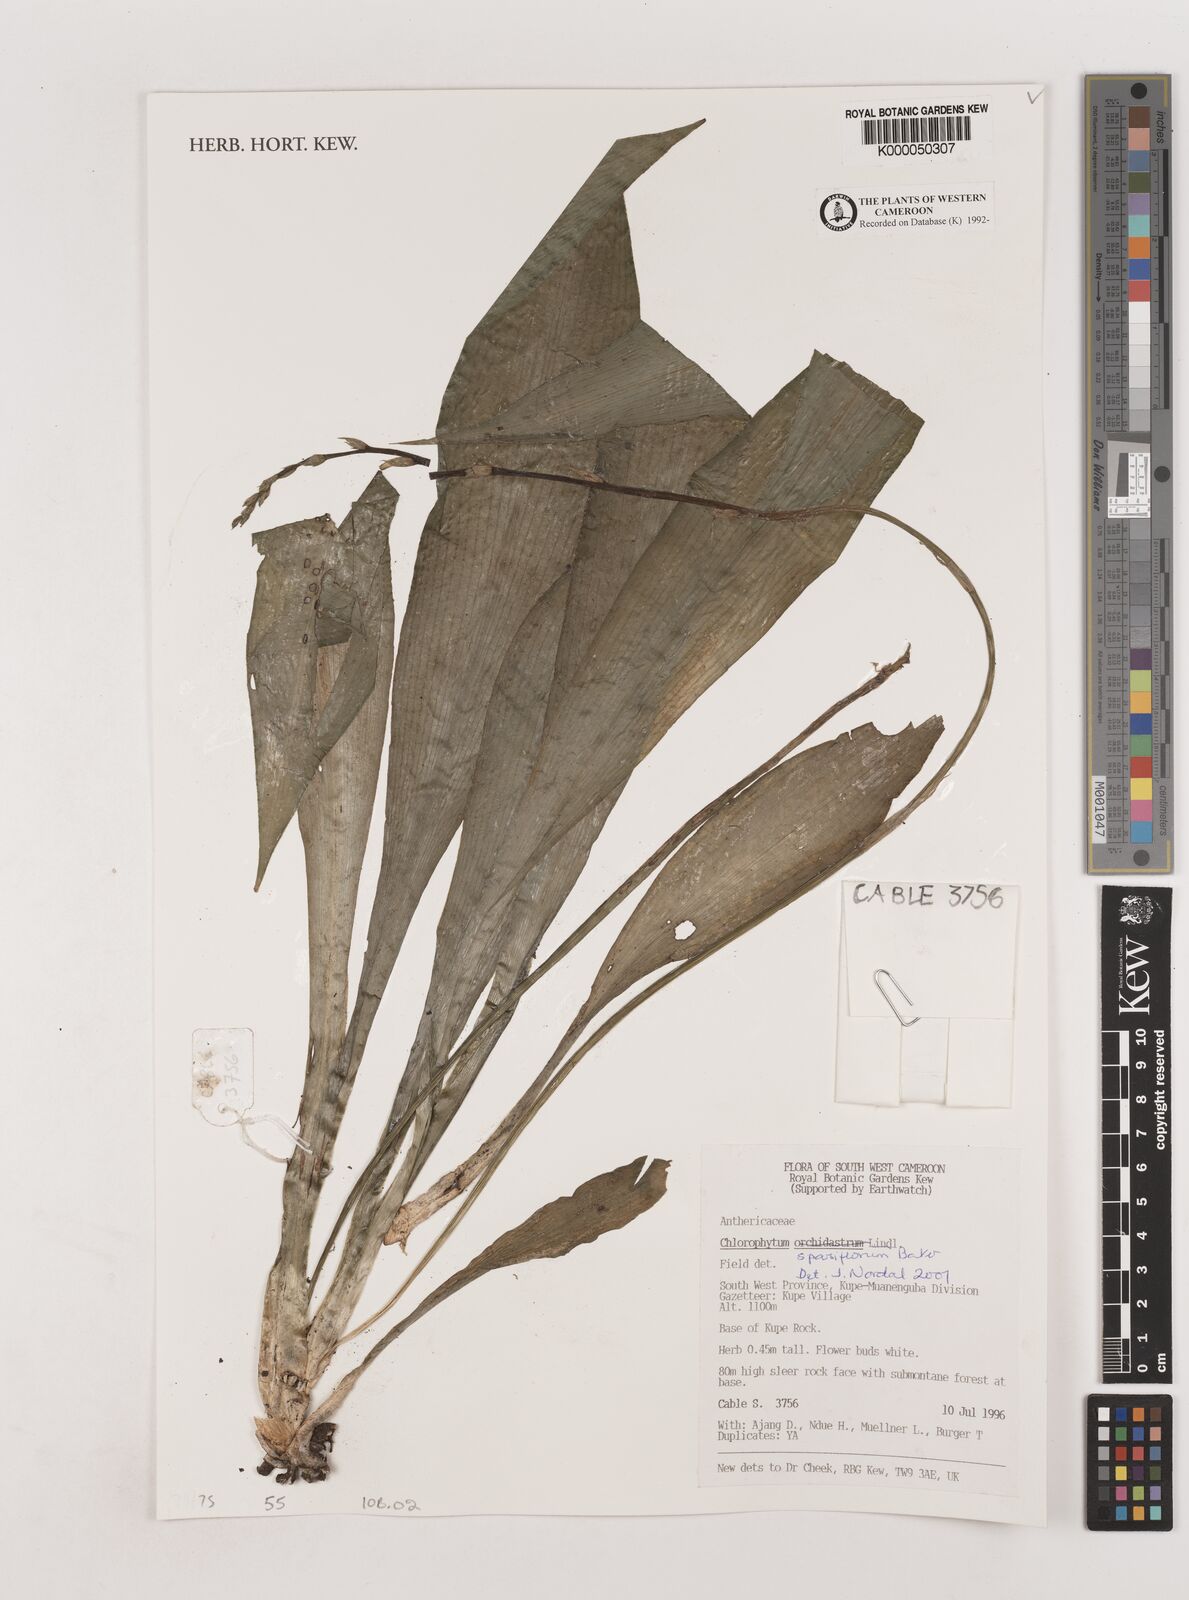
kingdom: Plantae
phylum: Tracheophyta
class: Liliopsida
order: Asparagales
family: Asparagaceae
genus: Chlorophytum
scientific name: Chlorophytum sparsiflorum
